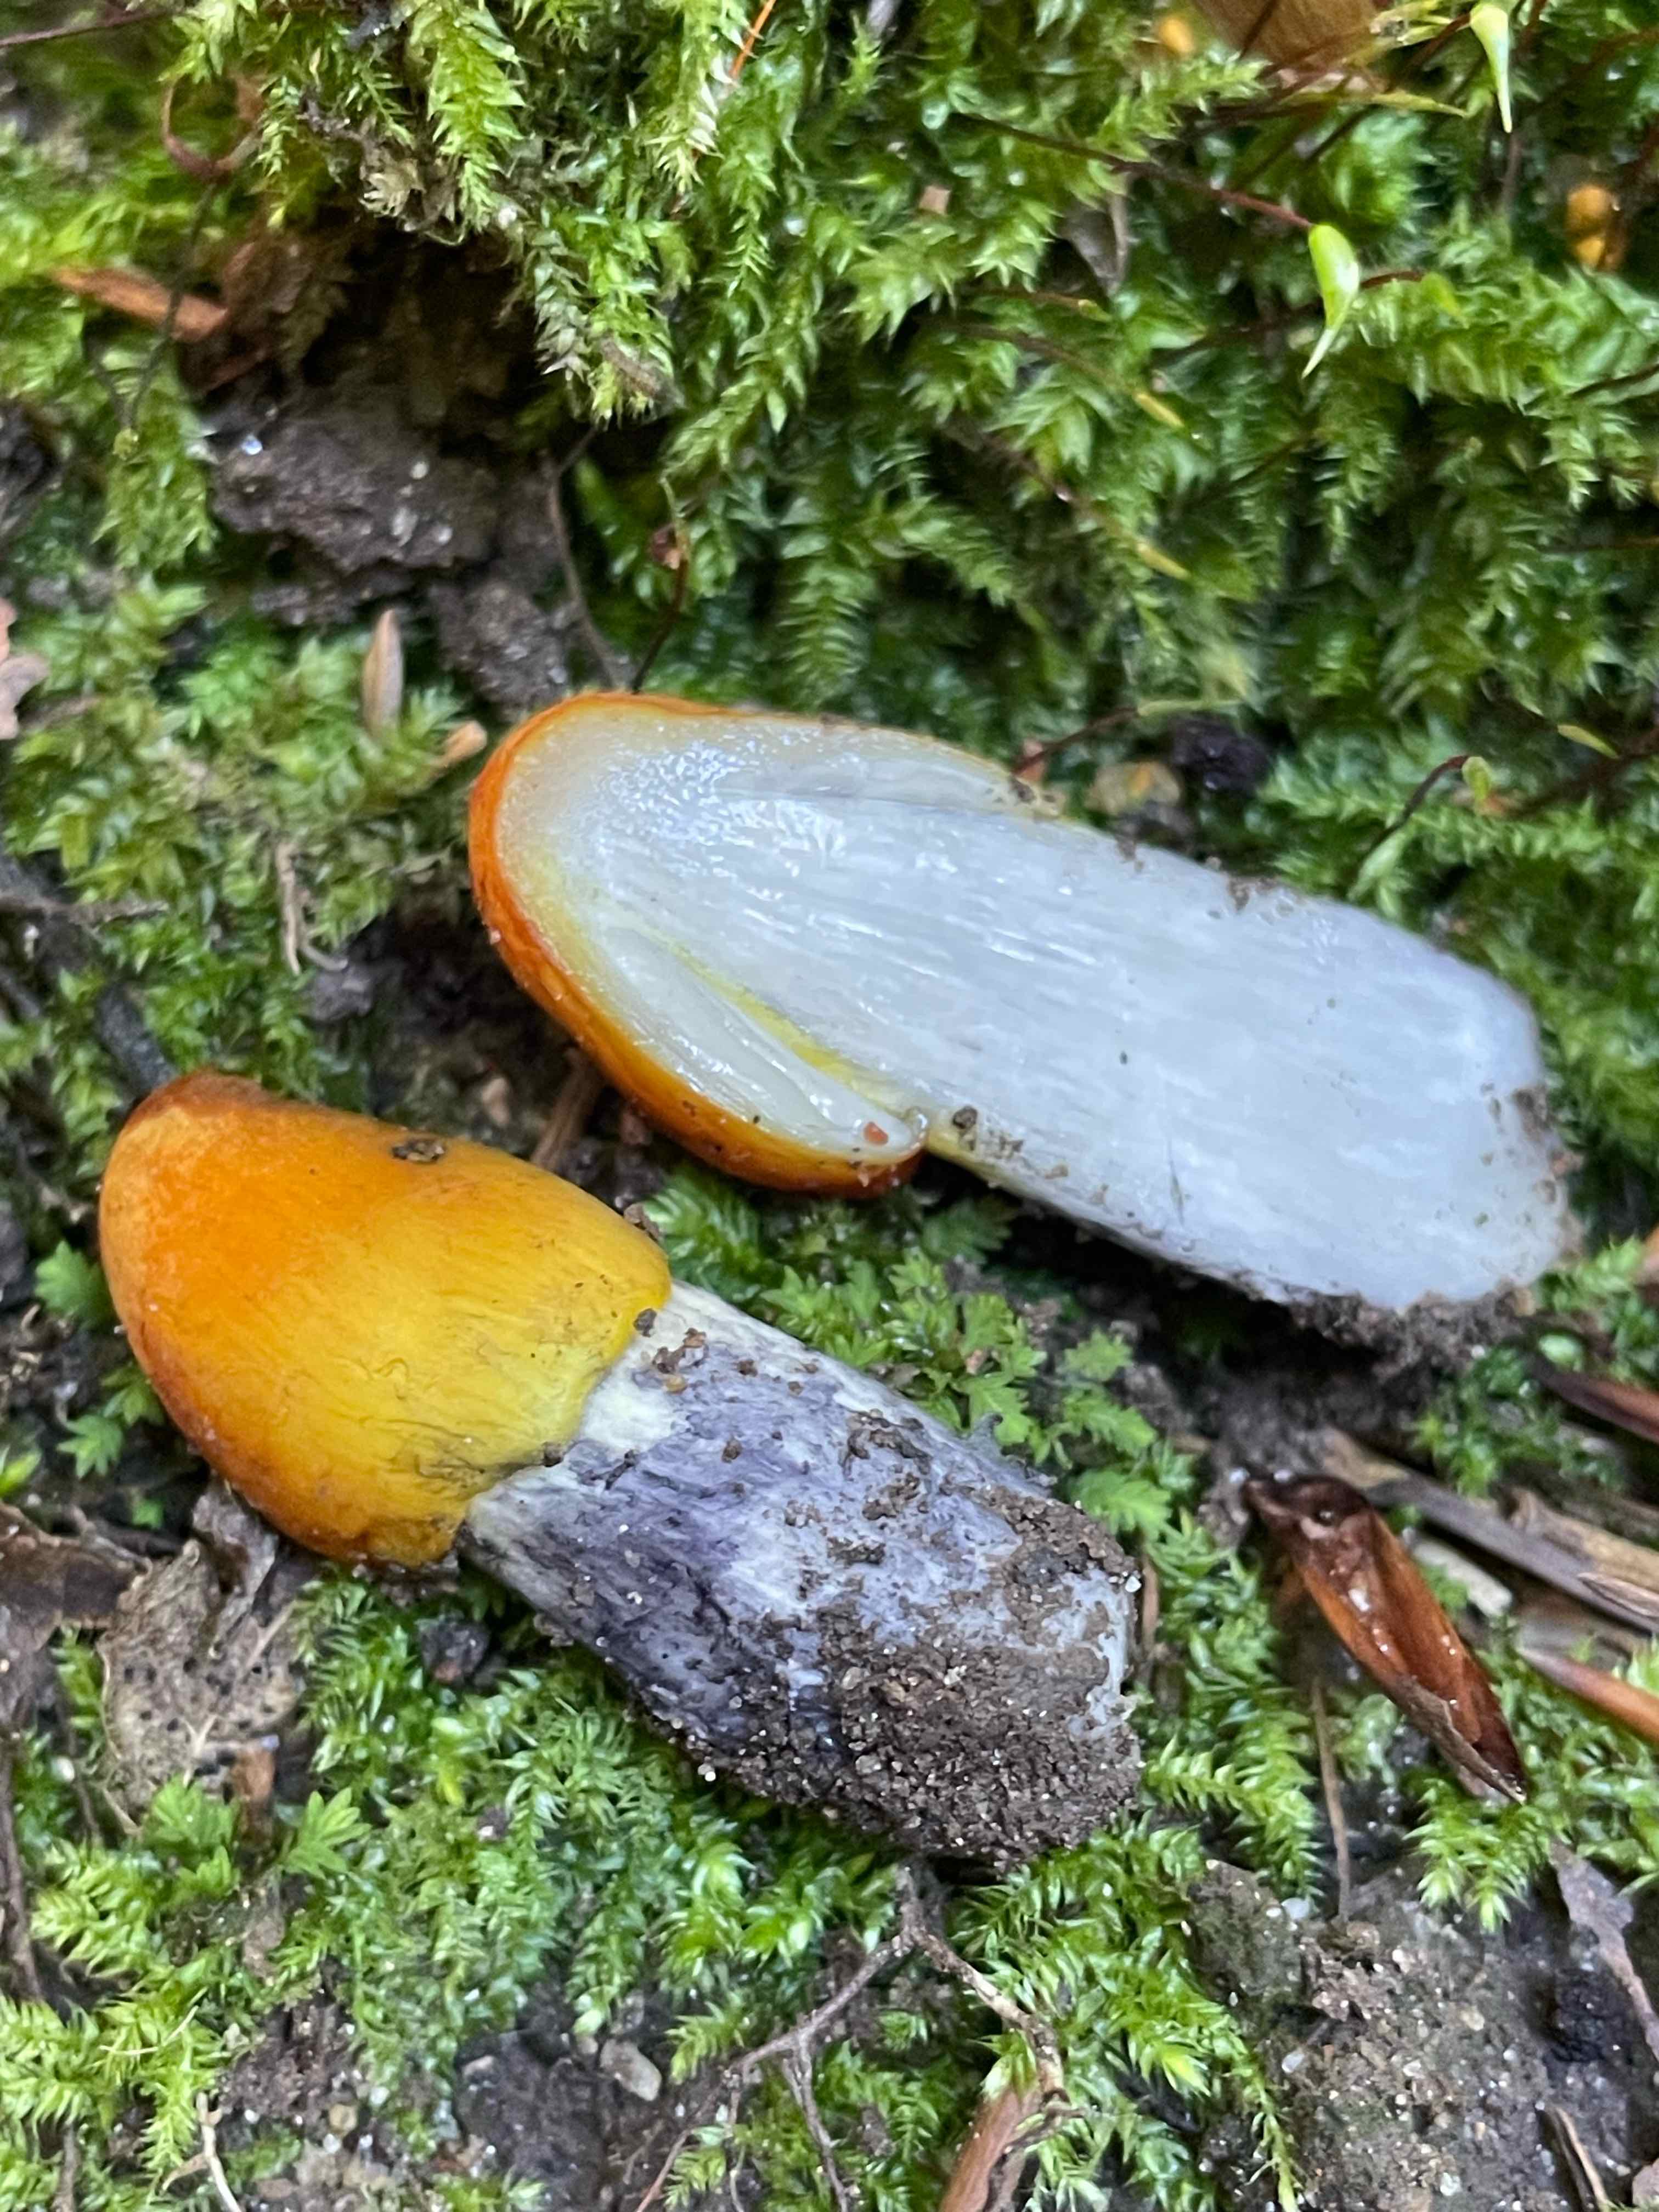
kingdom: Fungi
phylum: Basidiomycota
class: Agaricomycetes
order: Agaricales
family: Hygrophoraceae
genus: Hygrocybe
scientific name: Hygrocybe conica
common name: kegle-vokshat
